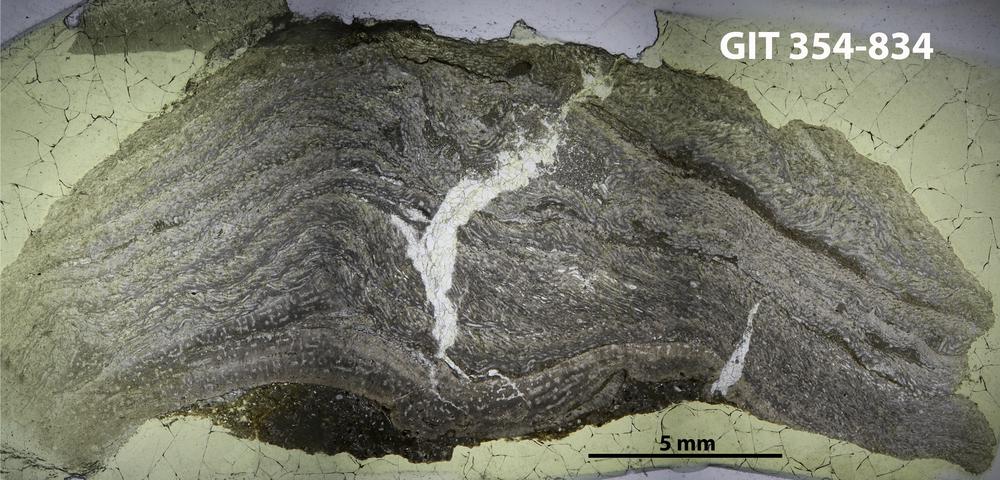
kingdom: Animalia
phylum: Porifera
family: Stromatoporidae
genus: Parallelostroma
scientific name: Parallelostroma
